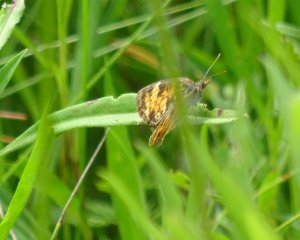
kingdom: Animalia
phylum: Arthropoda
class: Insecta
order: Lepidoptera
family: Nymphalidae
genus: Phyciodes
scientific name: Phyciodes tharos
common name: Northern Crescent
